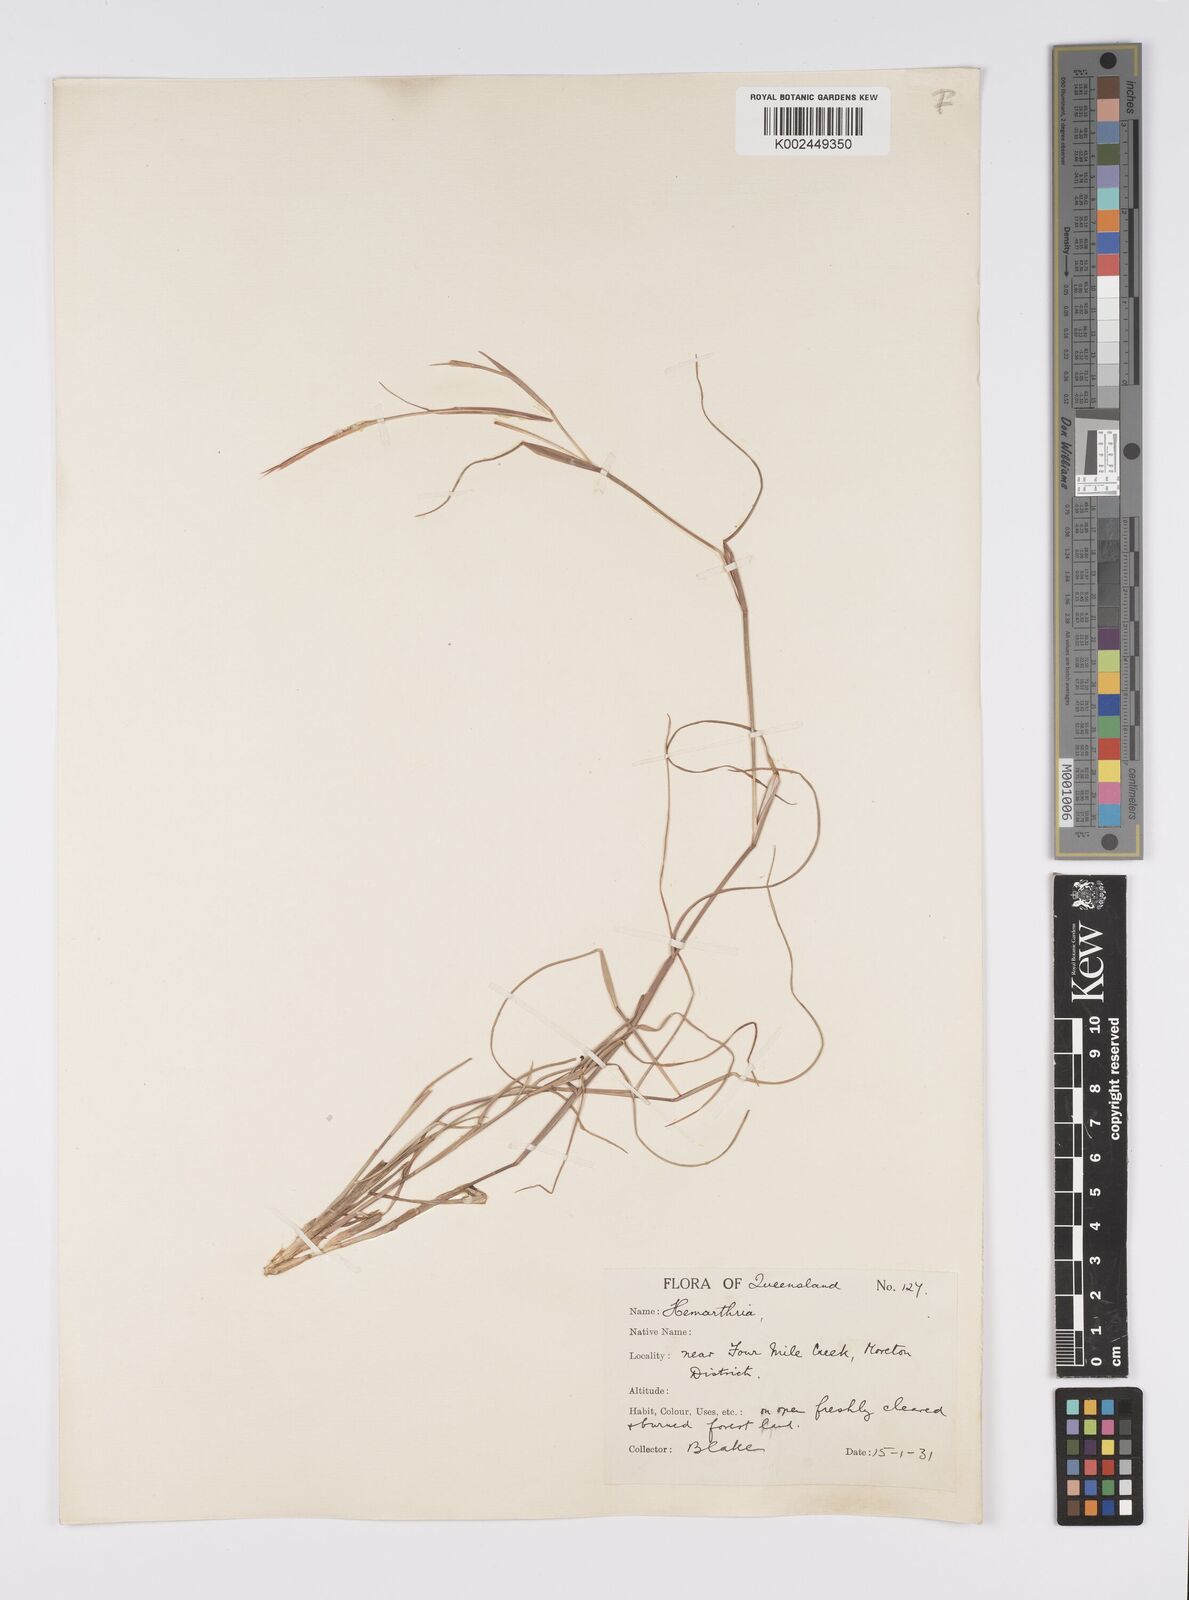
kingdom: Plantae
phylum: Tracheophyta
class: Liliopsida
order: Poales
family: Poaceae
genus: Hemarthria
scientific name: Hemarthria uncinata
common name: Matgrass
